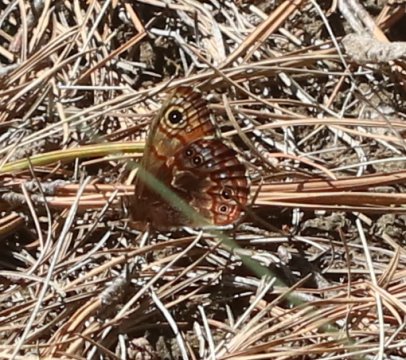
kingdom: Animalia
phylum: Arthropoda
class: Insecta
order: Lepidoptera
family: Nymphalidae
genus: Paramecera
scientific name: Paramecera copiosa
